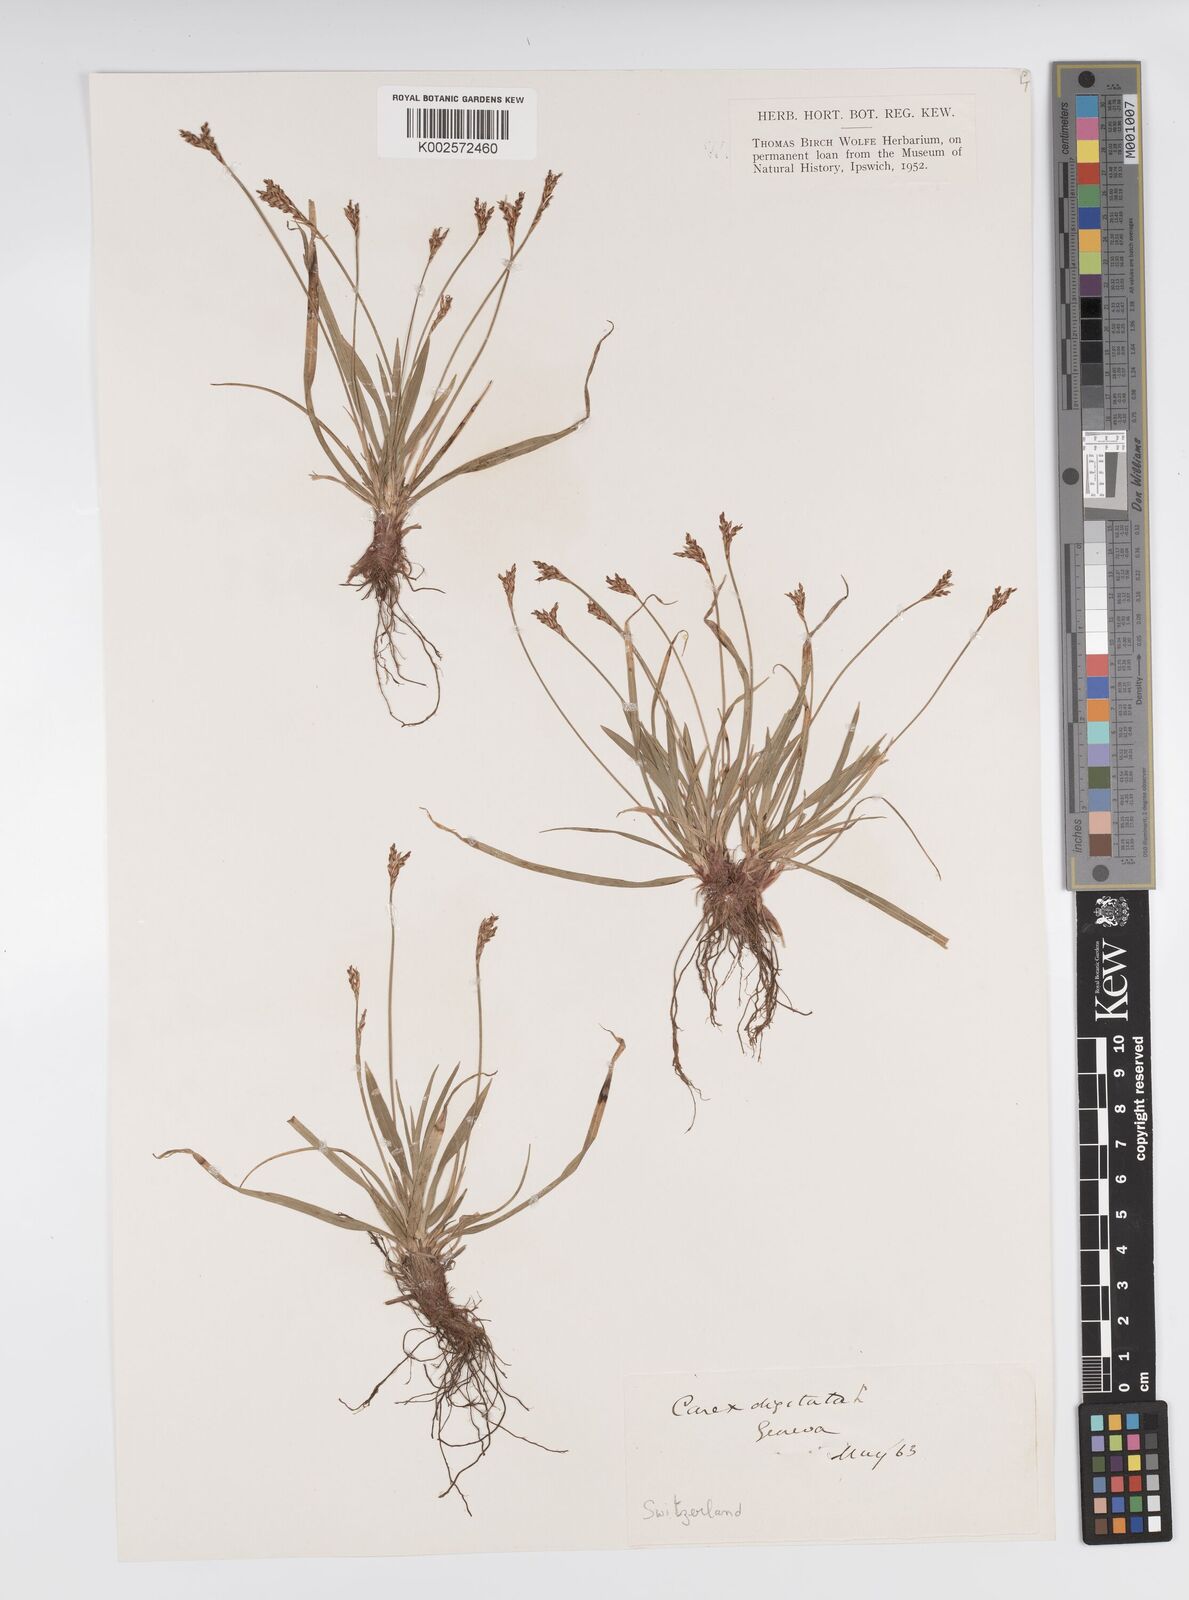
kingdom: Plantae
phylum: Tracheophyta
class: Liliopsida
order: Poales
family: Cyperaceae
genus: Carex
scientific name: Carex digitata
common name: Fingered sedge
